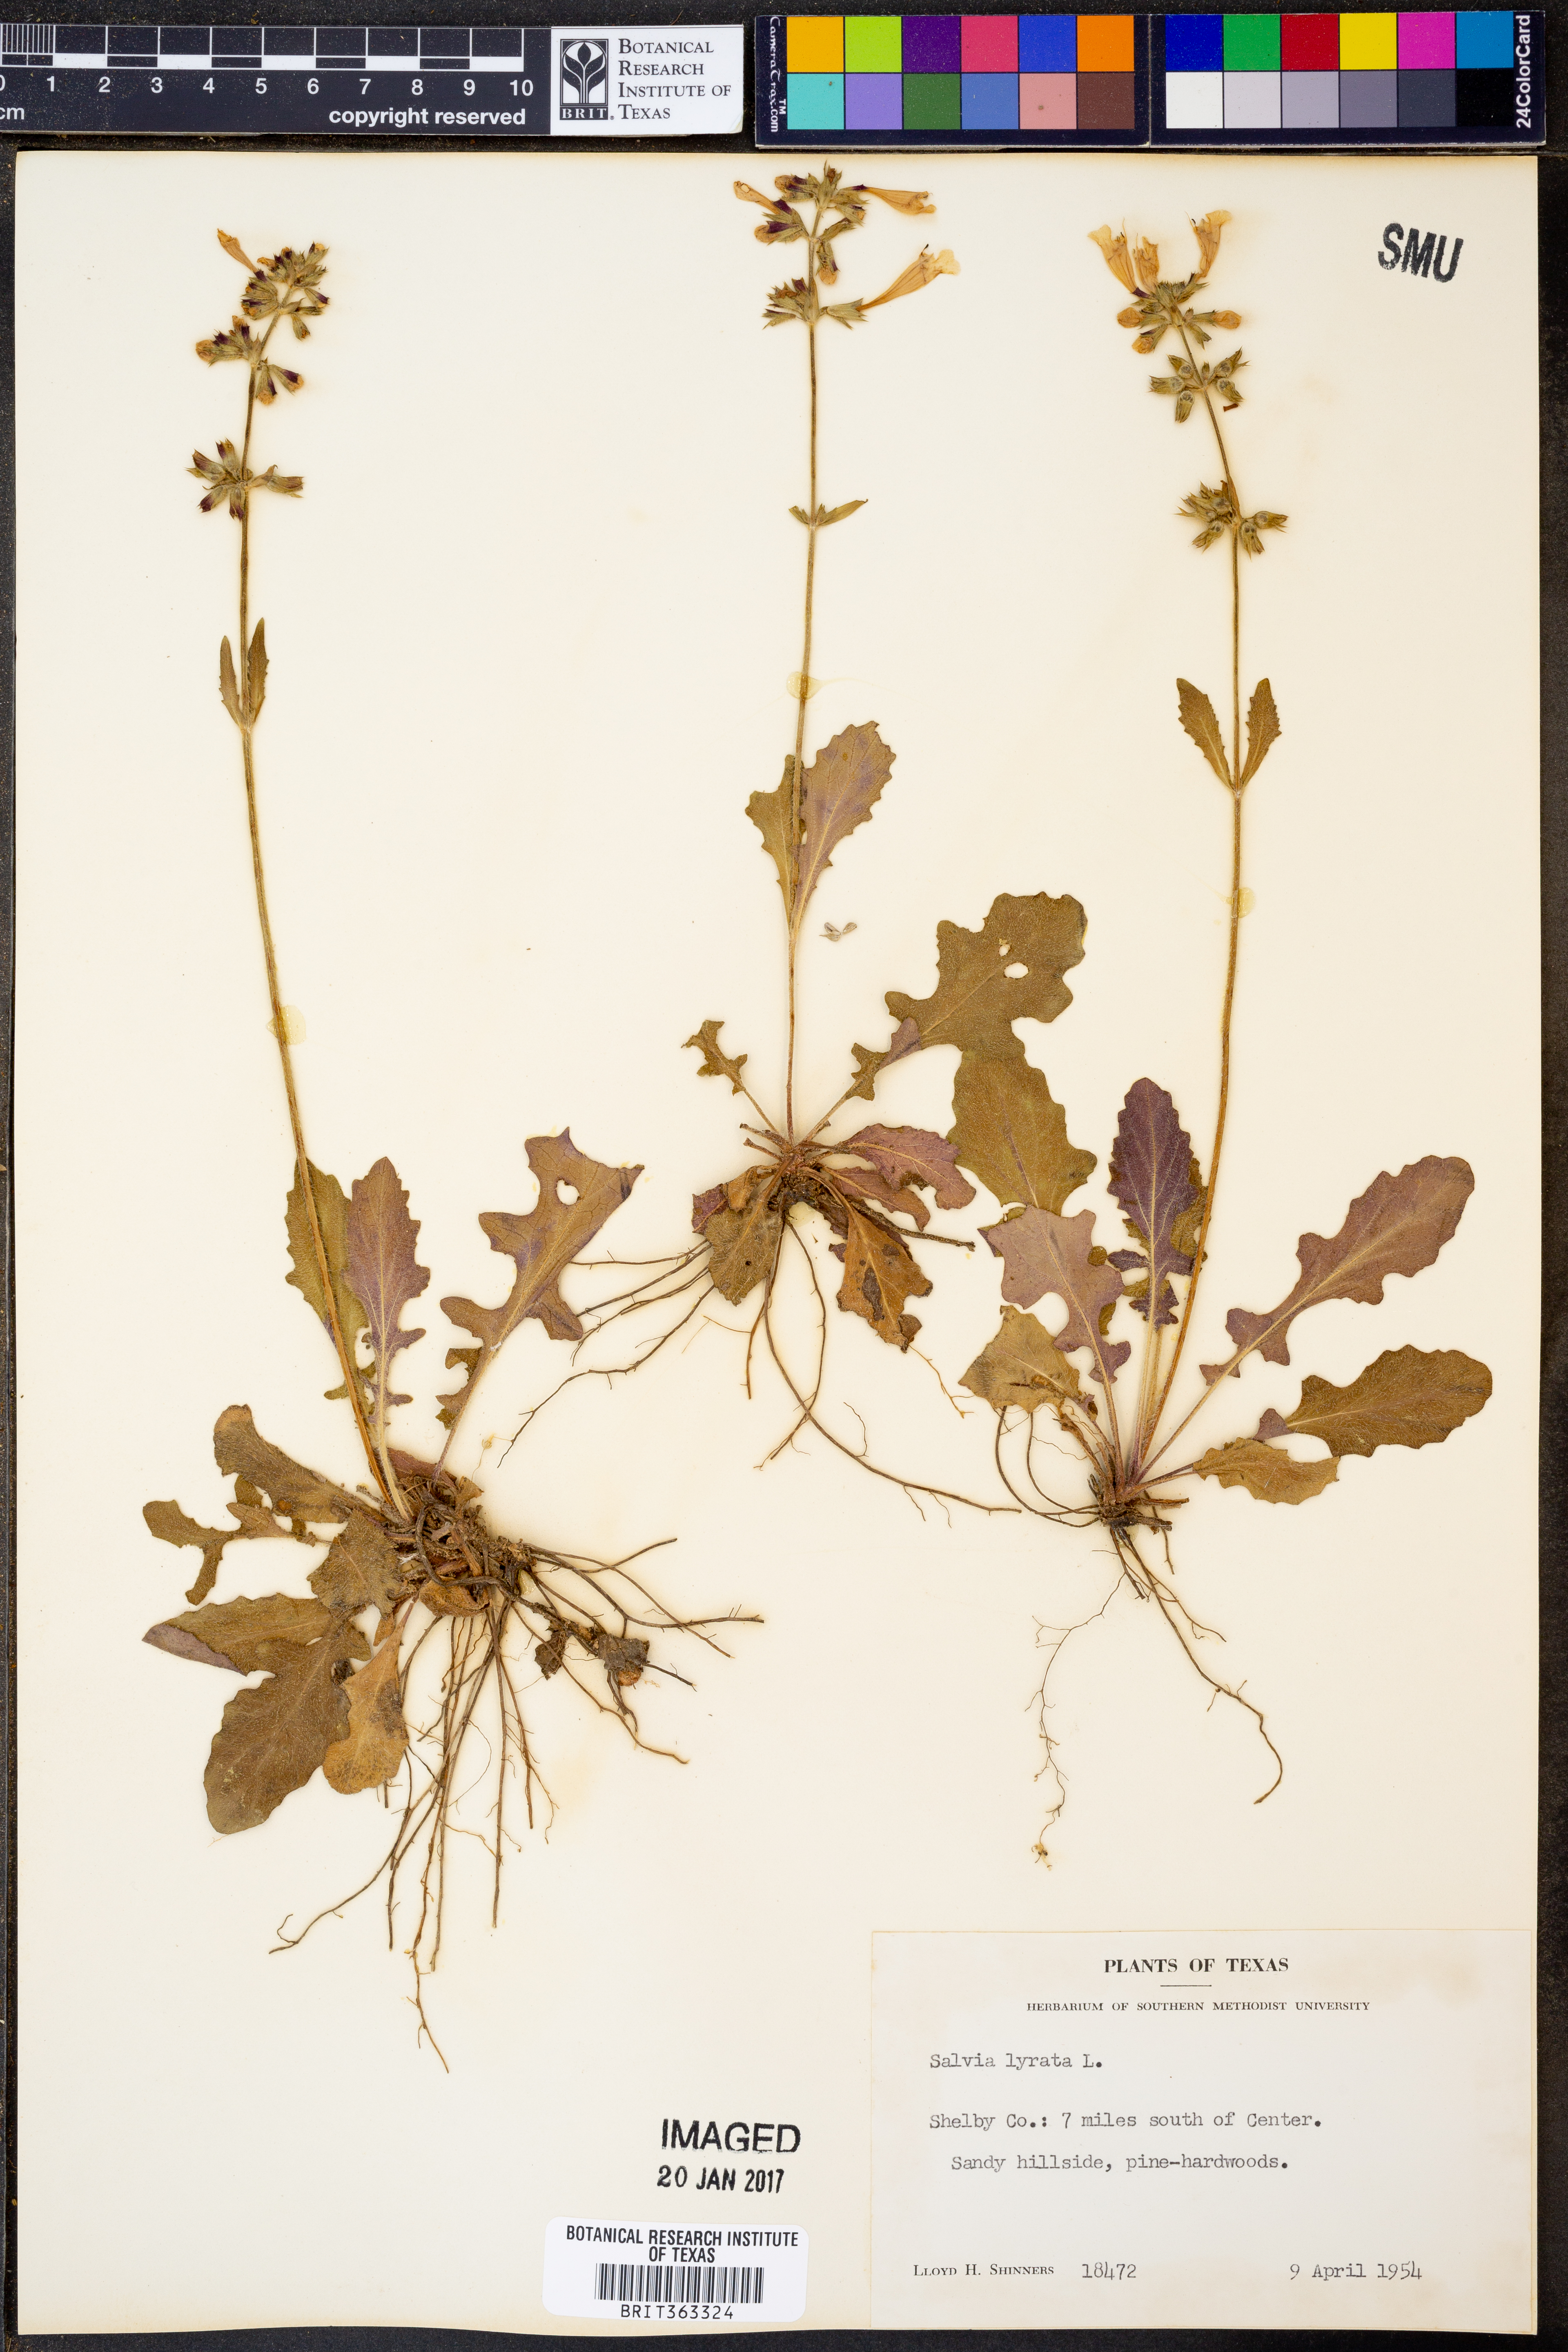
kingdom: Plantae
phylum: Tracheophyta
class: Magnoliopsida
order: Lamiales
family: Lamiaceae
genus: Salvia
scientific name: Salvia lyrata
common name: Cancerweed
